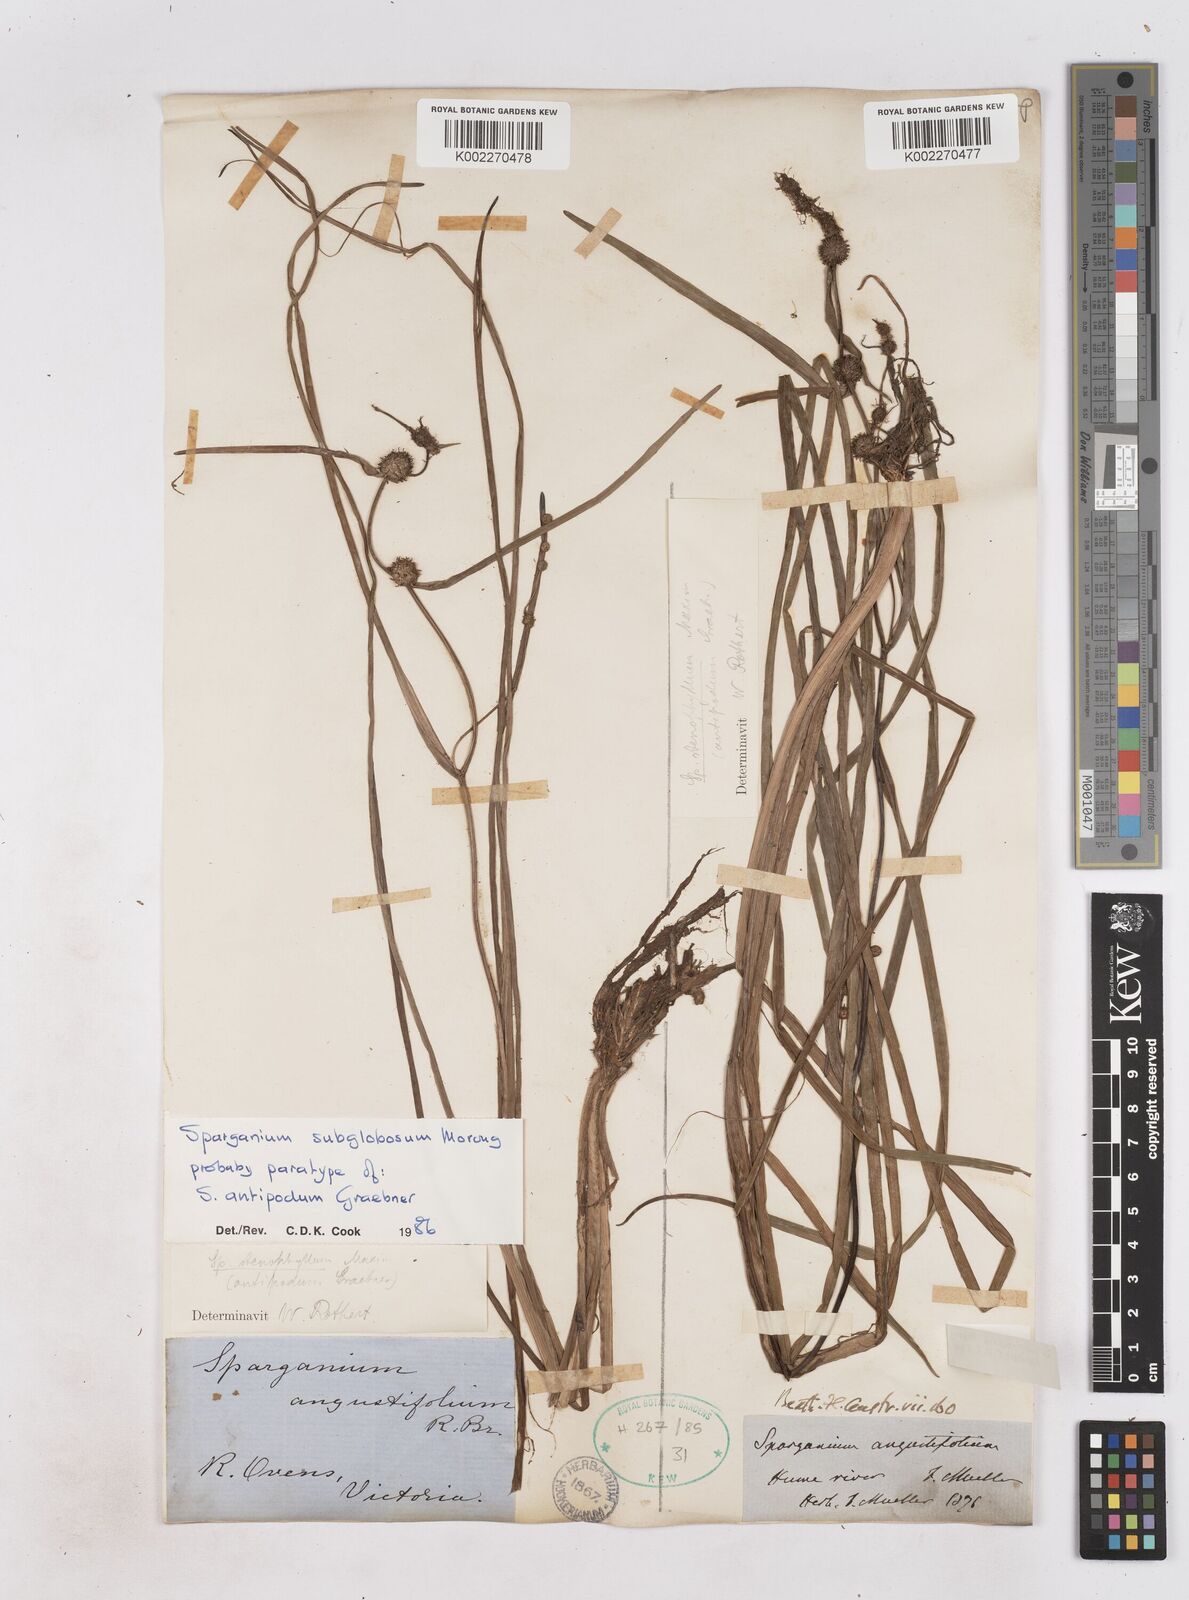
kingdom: Plantae
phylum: Tracheophyta
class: Liliopsida
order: Poales
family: Typhaceae
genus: Sparganium
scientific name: Sparganium subglobosum
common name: Burr­-reed
